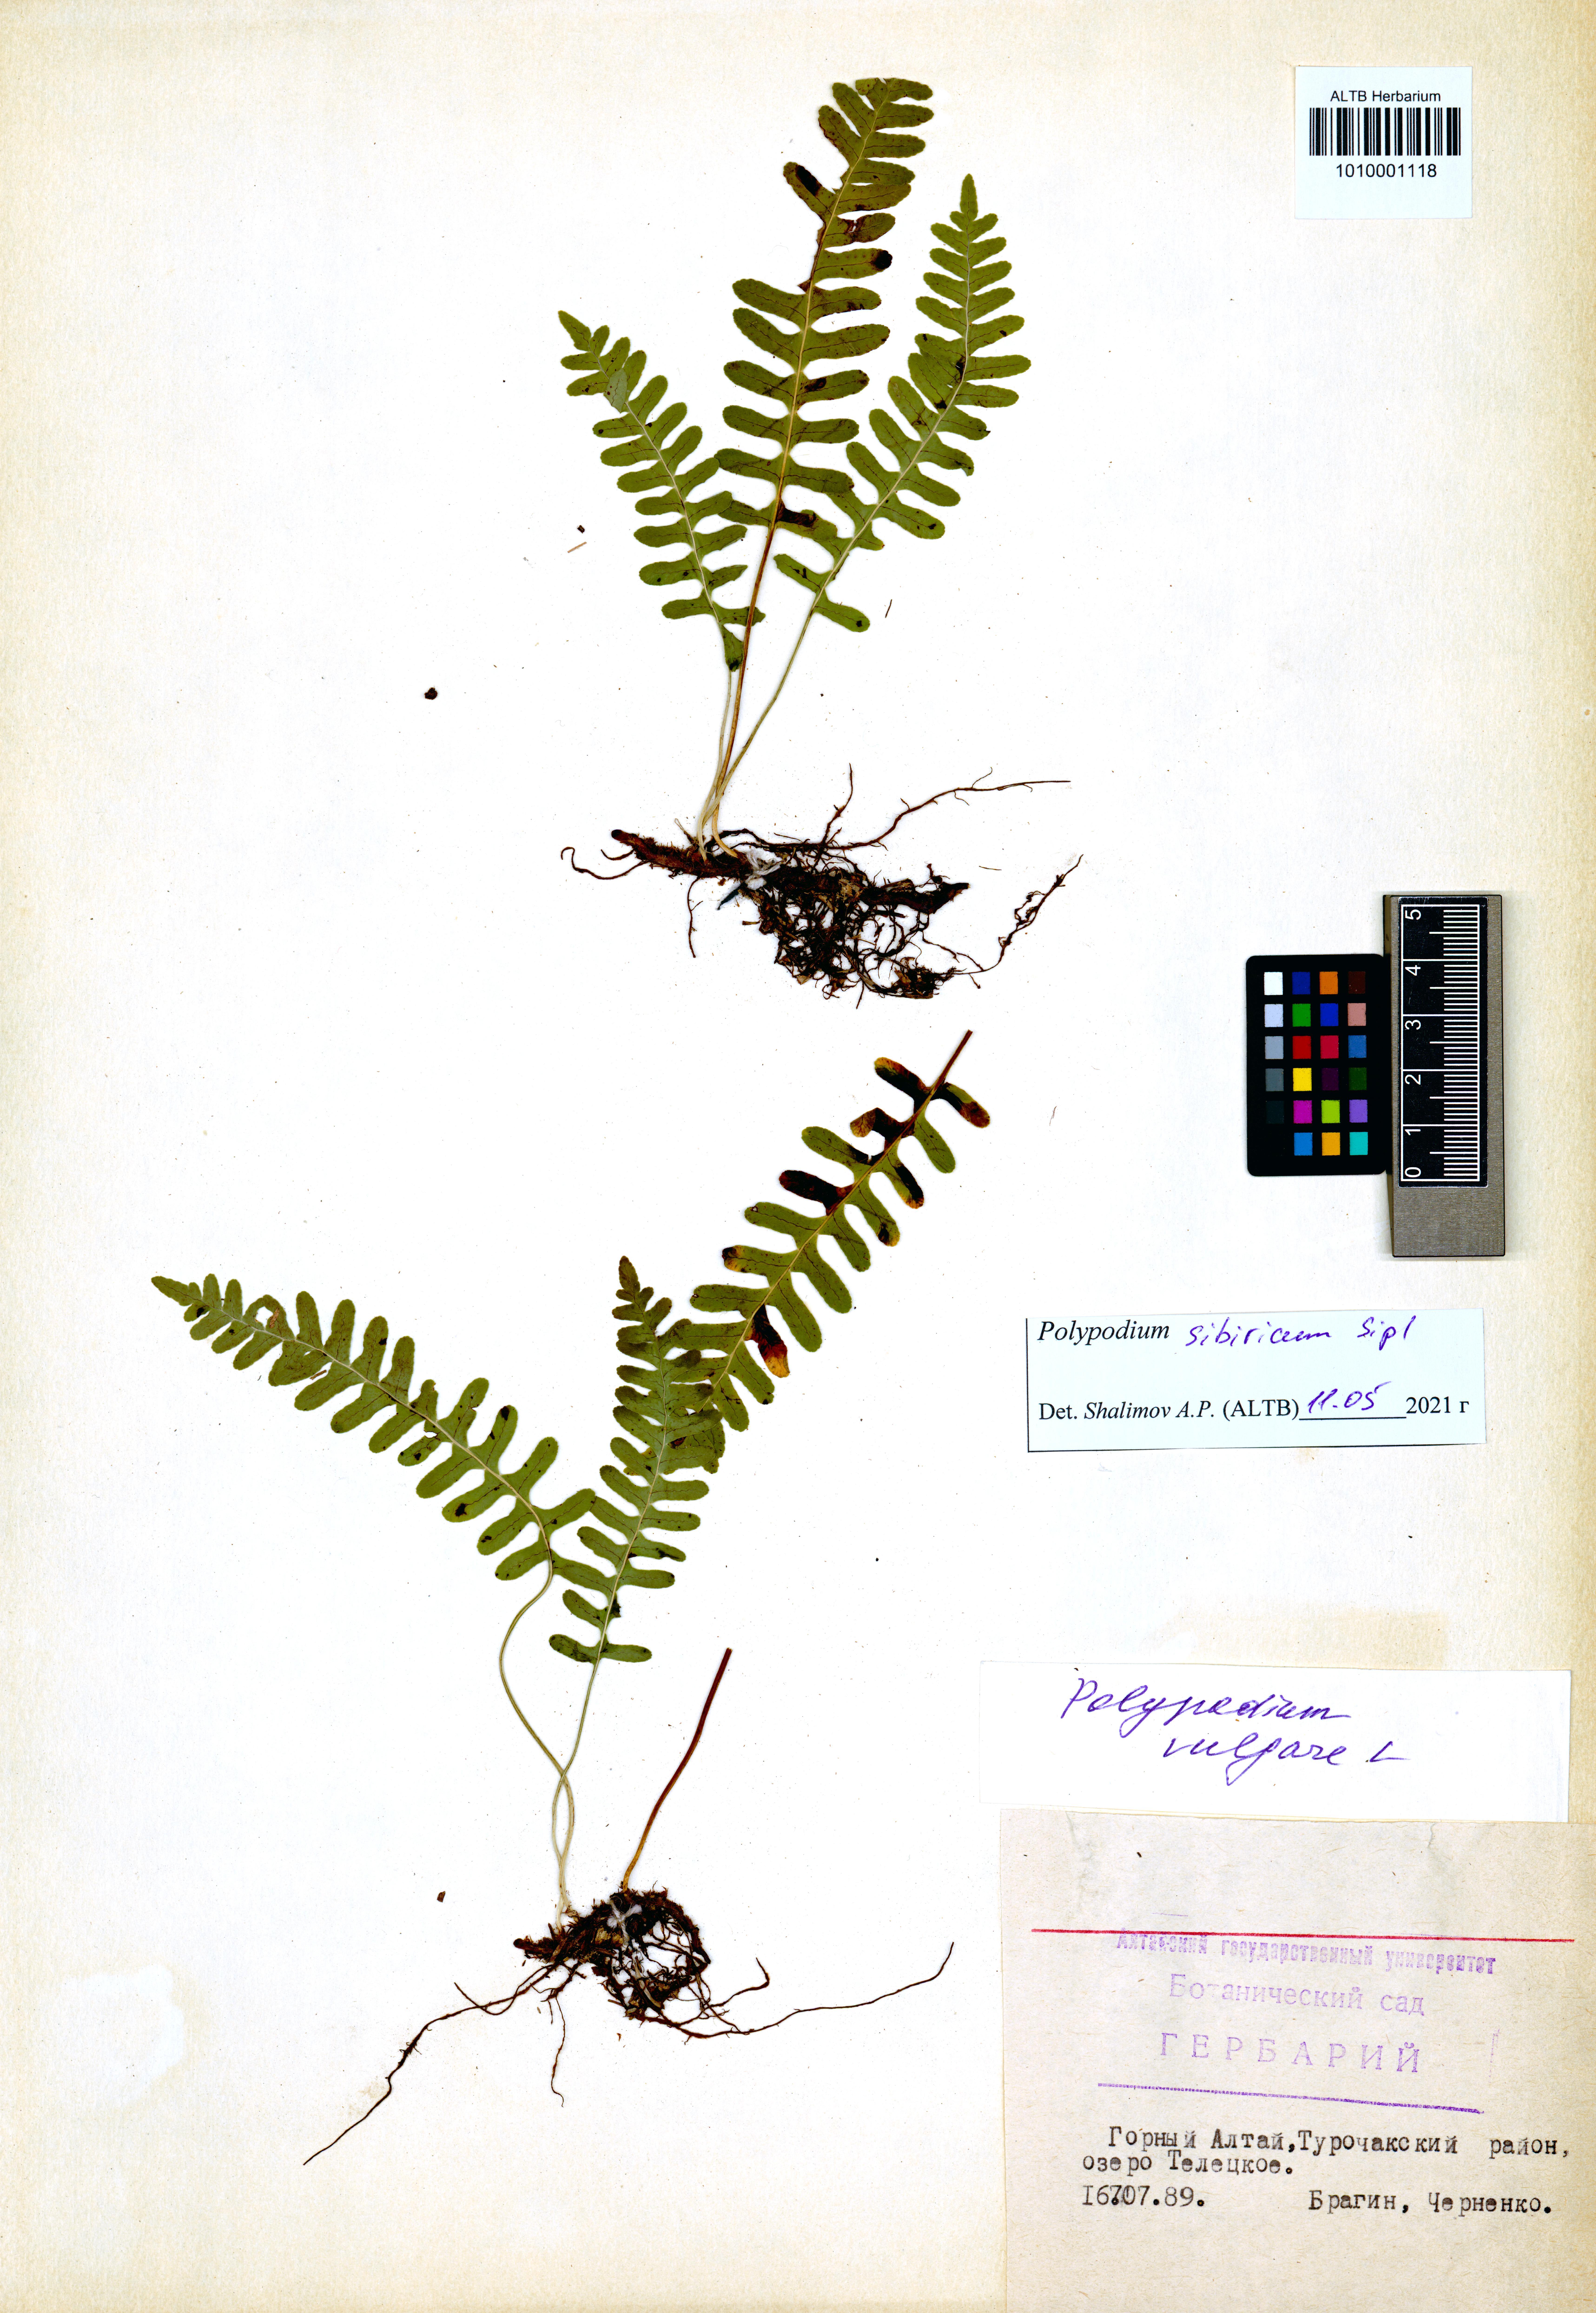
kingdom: Plantae
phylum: Tracheophyta
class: Polypodiopsida
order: Polypodiales
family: Polypodiaceae
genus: Polypodium
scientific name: Polypodium sibiricum
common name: Siberian polypody
